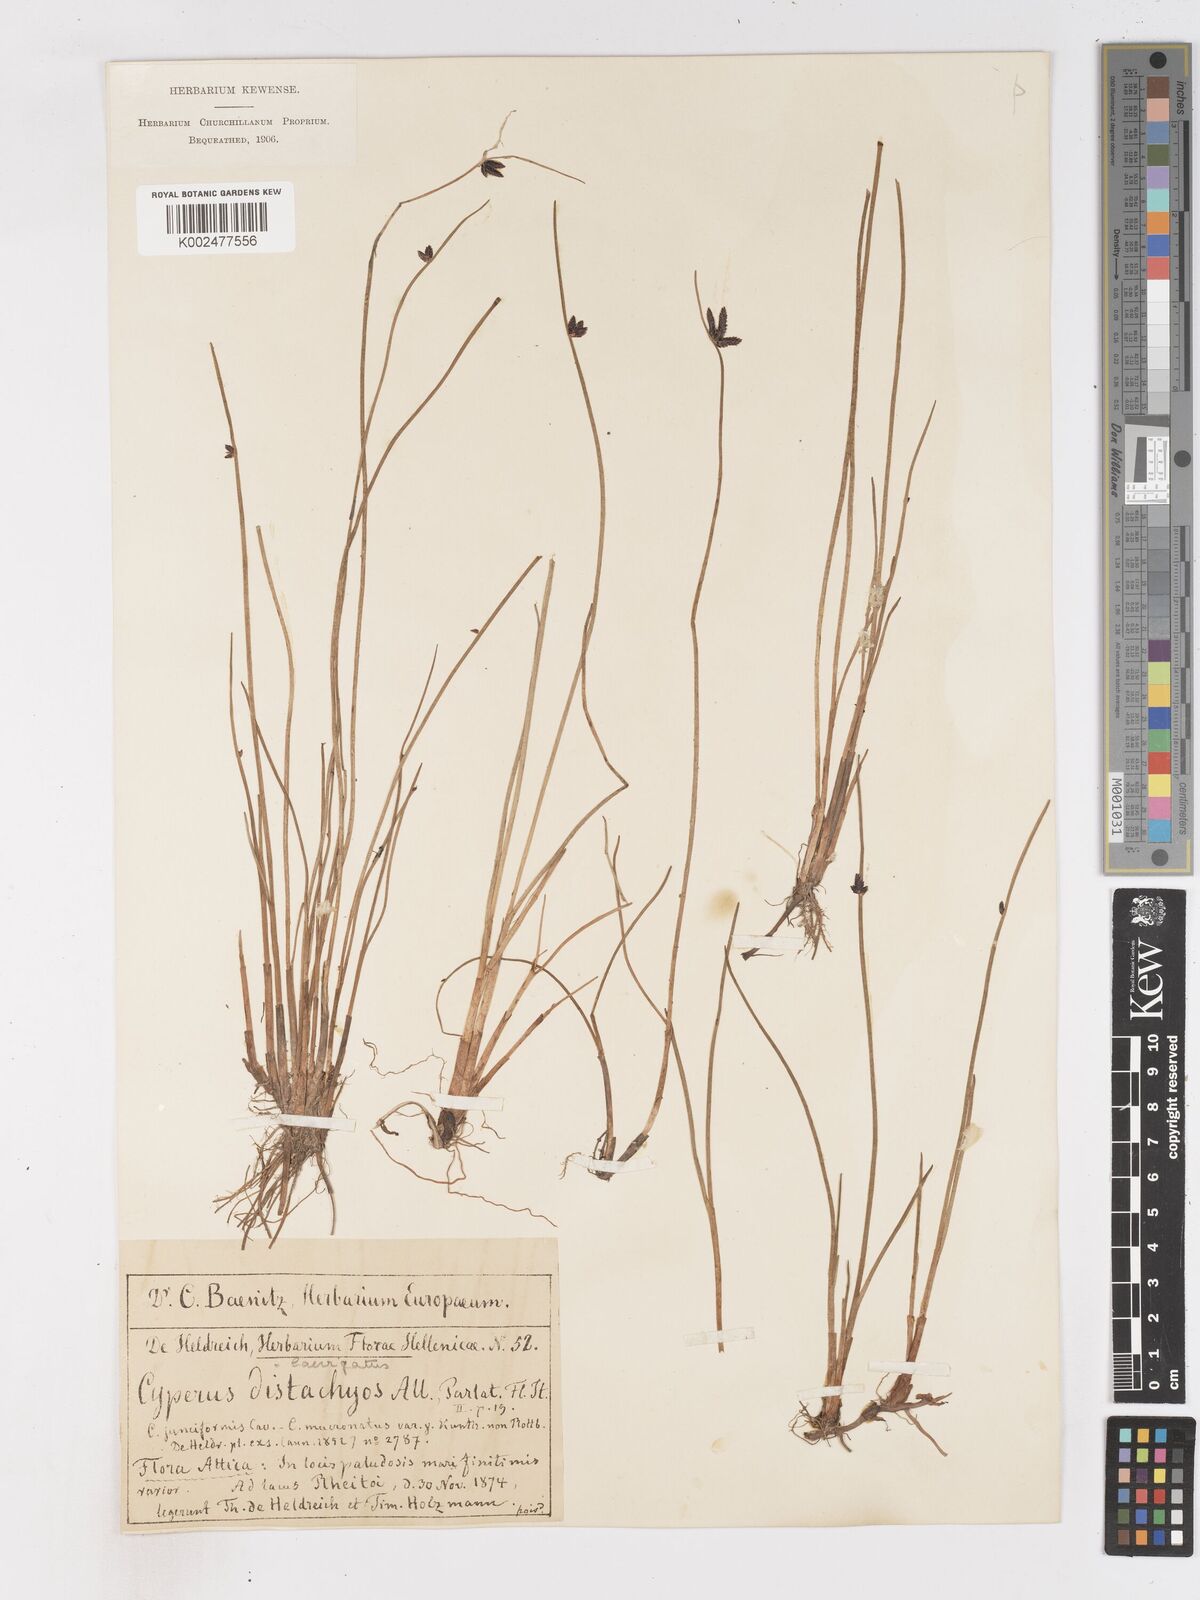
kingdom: Plantae
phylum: Tracheophyta
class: Liliopsida
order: Poales
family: Cyperaceae
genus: Cyperus
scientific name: Cyperus laevigatus
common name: Smooth flat sedge
